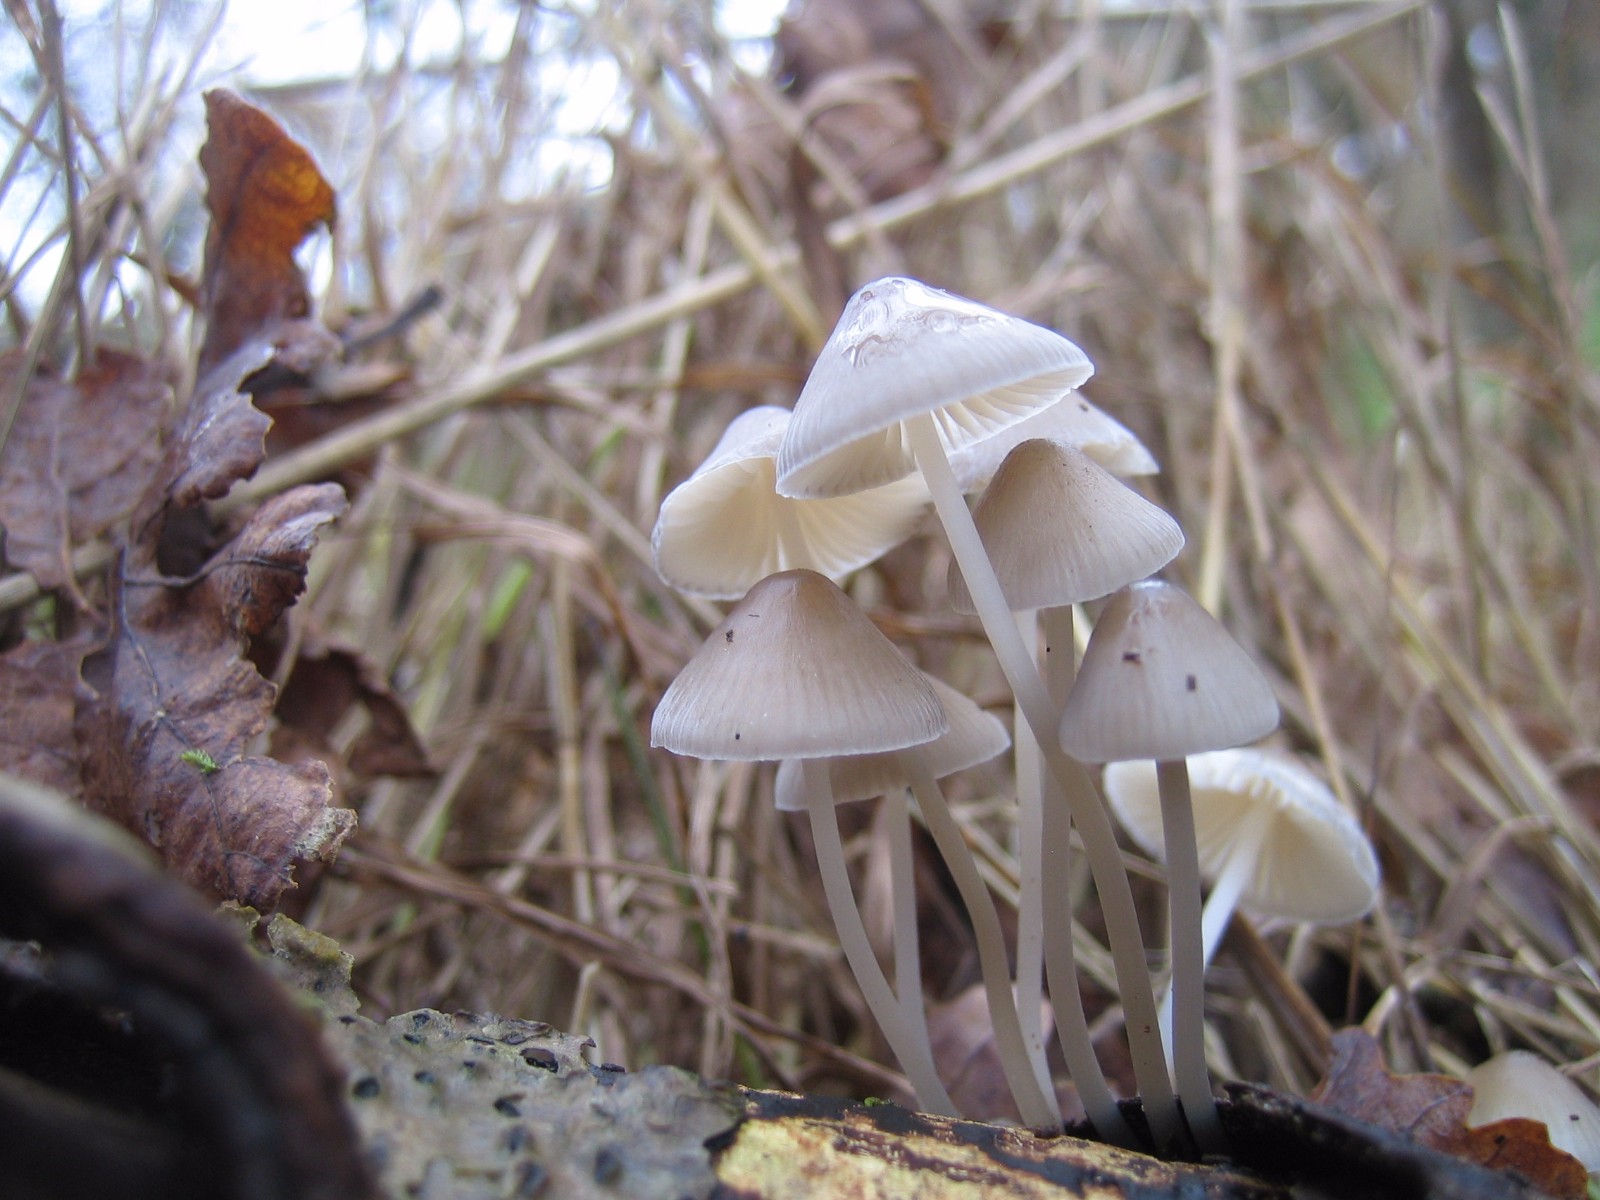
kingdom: Fungi
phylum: Basidiomycota
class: Agaricomycetes
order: Agaricales
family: Mycenaceae
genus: Mycena
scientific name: Mycena vitilis
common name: blankstokket huesvamp
